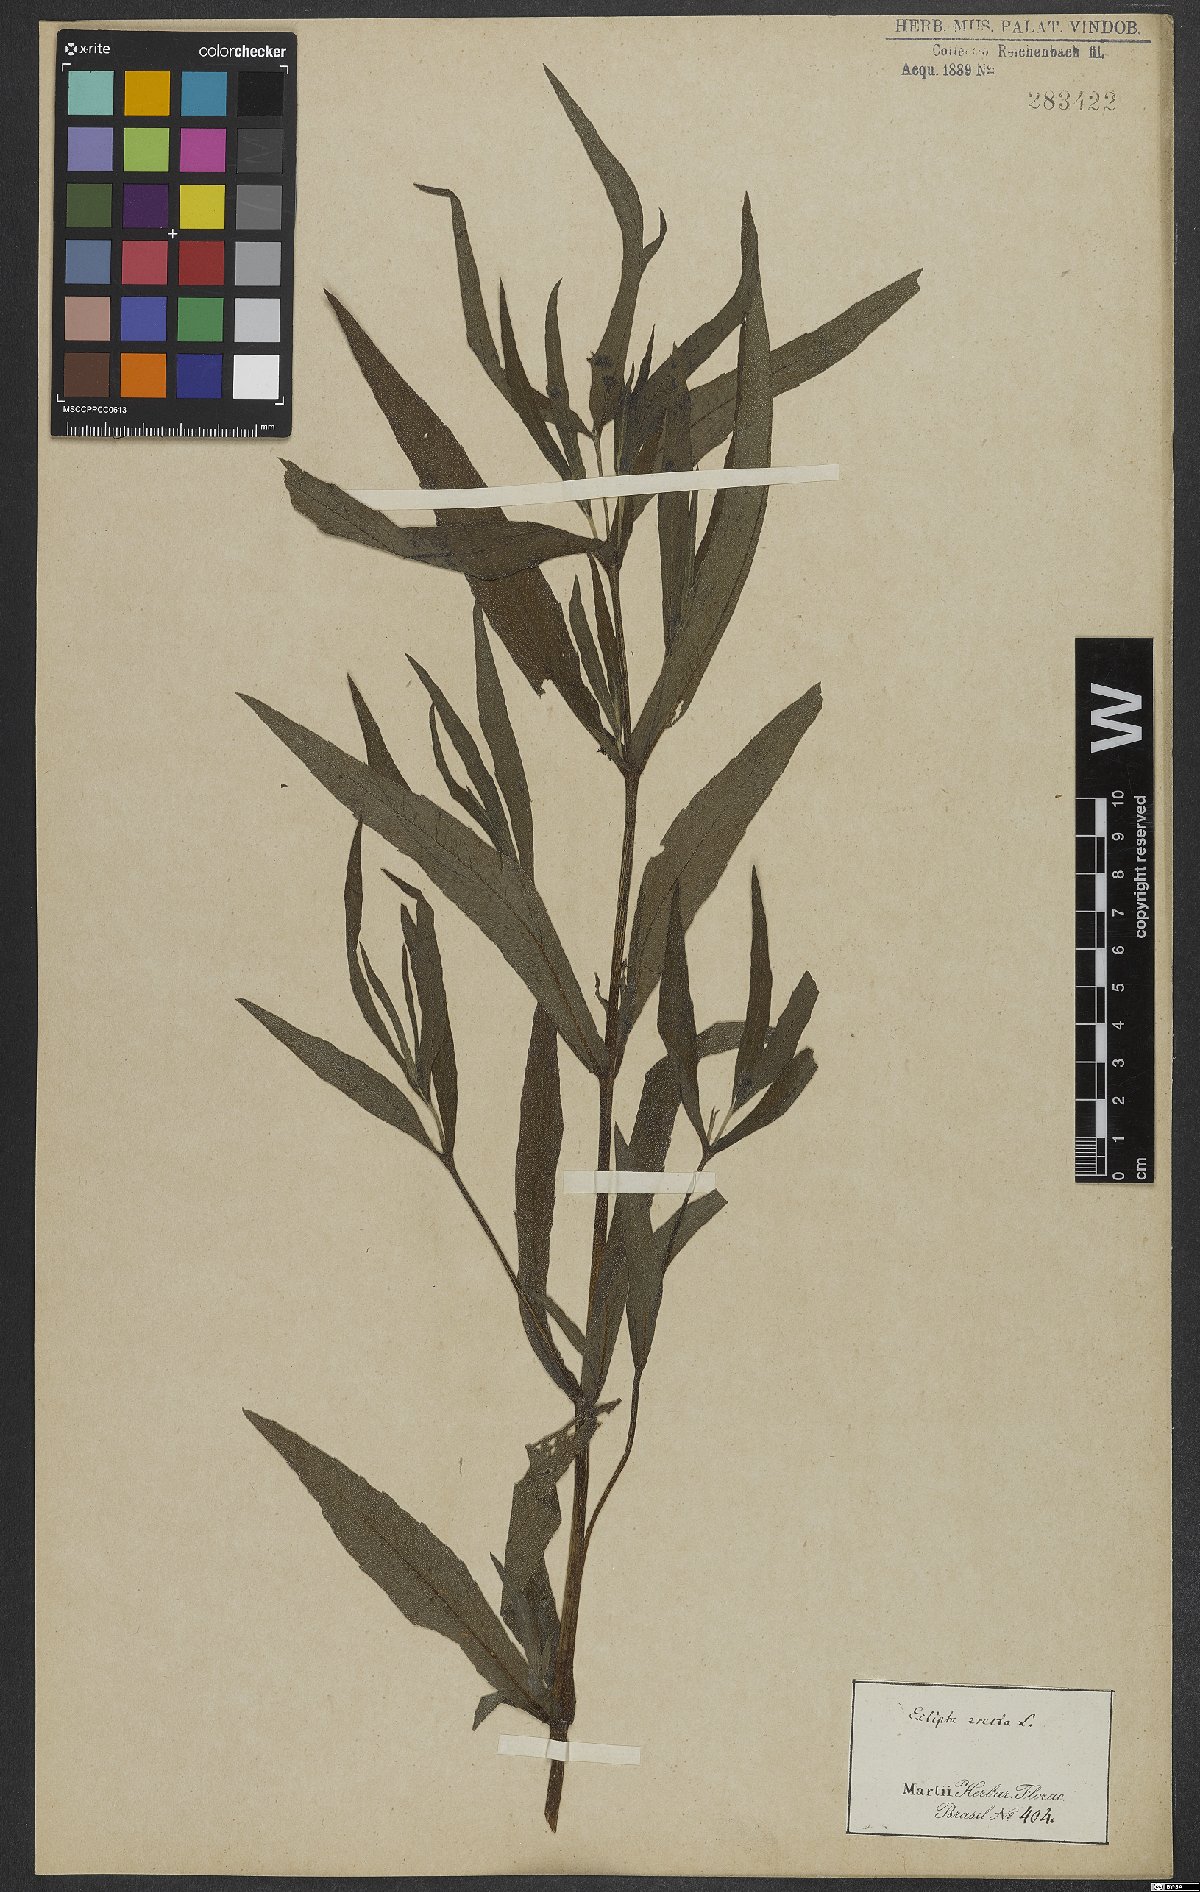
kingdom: Plantae
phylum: Tracheophyta
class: Magnoliopsida
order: Asterales
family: Asteraceae
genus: Eclipta
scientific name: Eclipta alba
